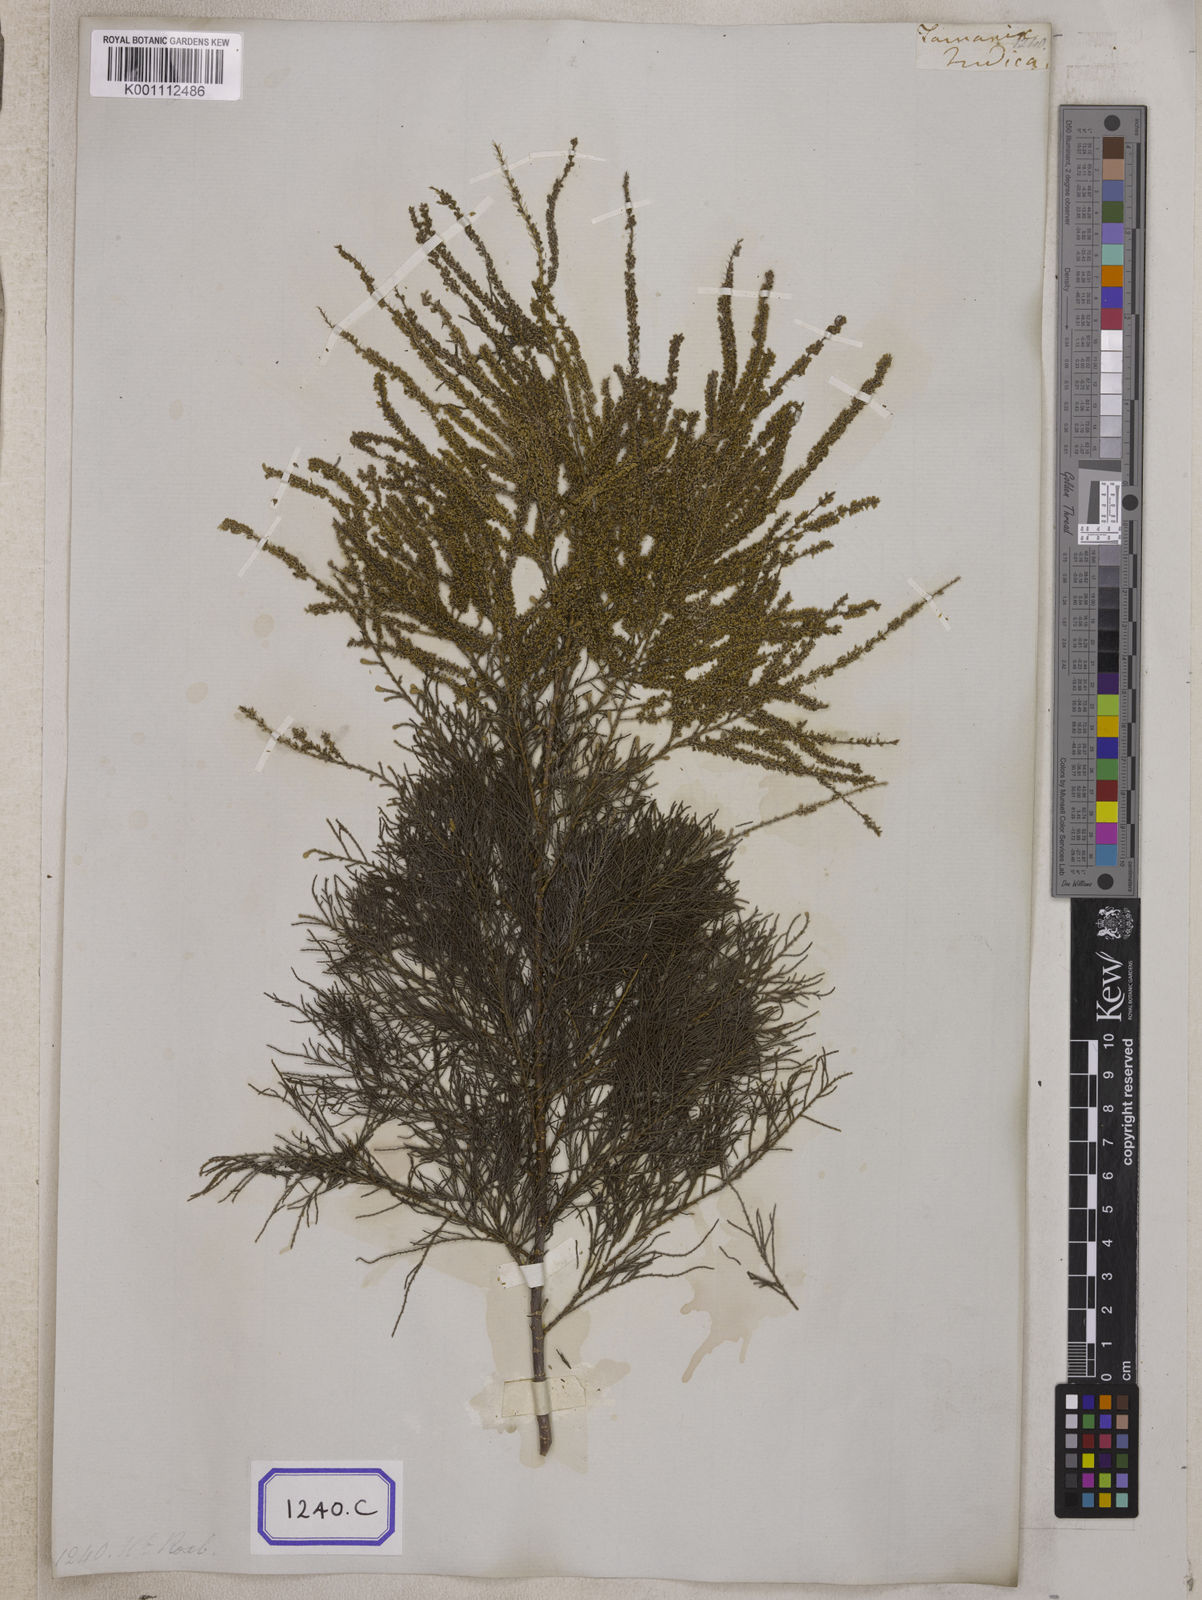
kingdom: Plantae
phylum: Tracheophyta
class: Magnoliopsida
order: Caryophyllales
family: Tamaricaceae
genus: Tamarix
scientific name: Tamarix indica
